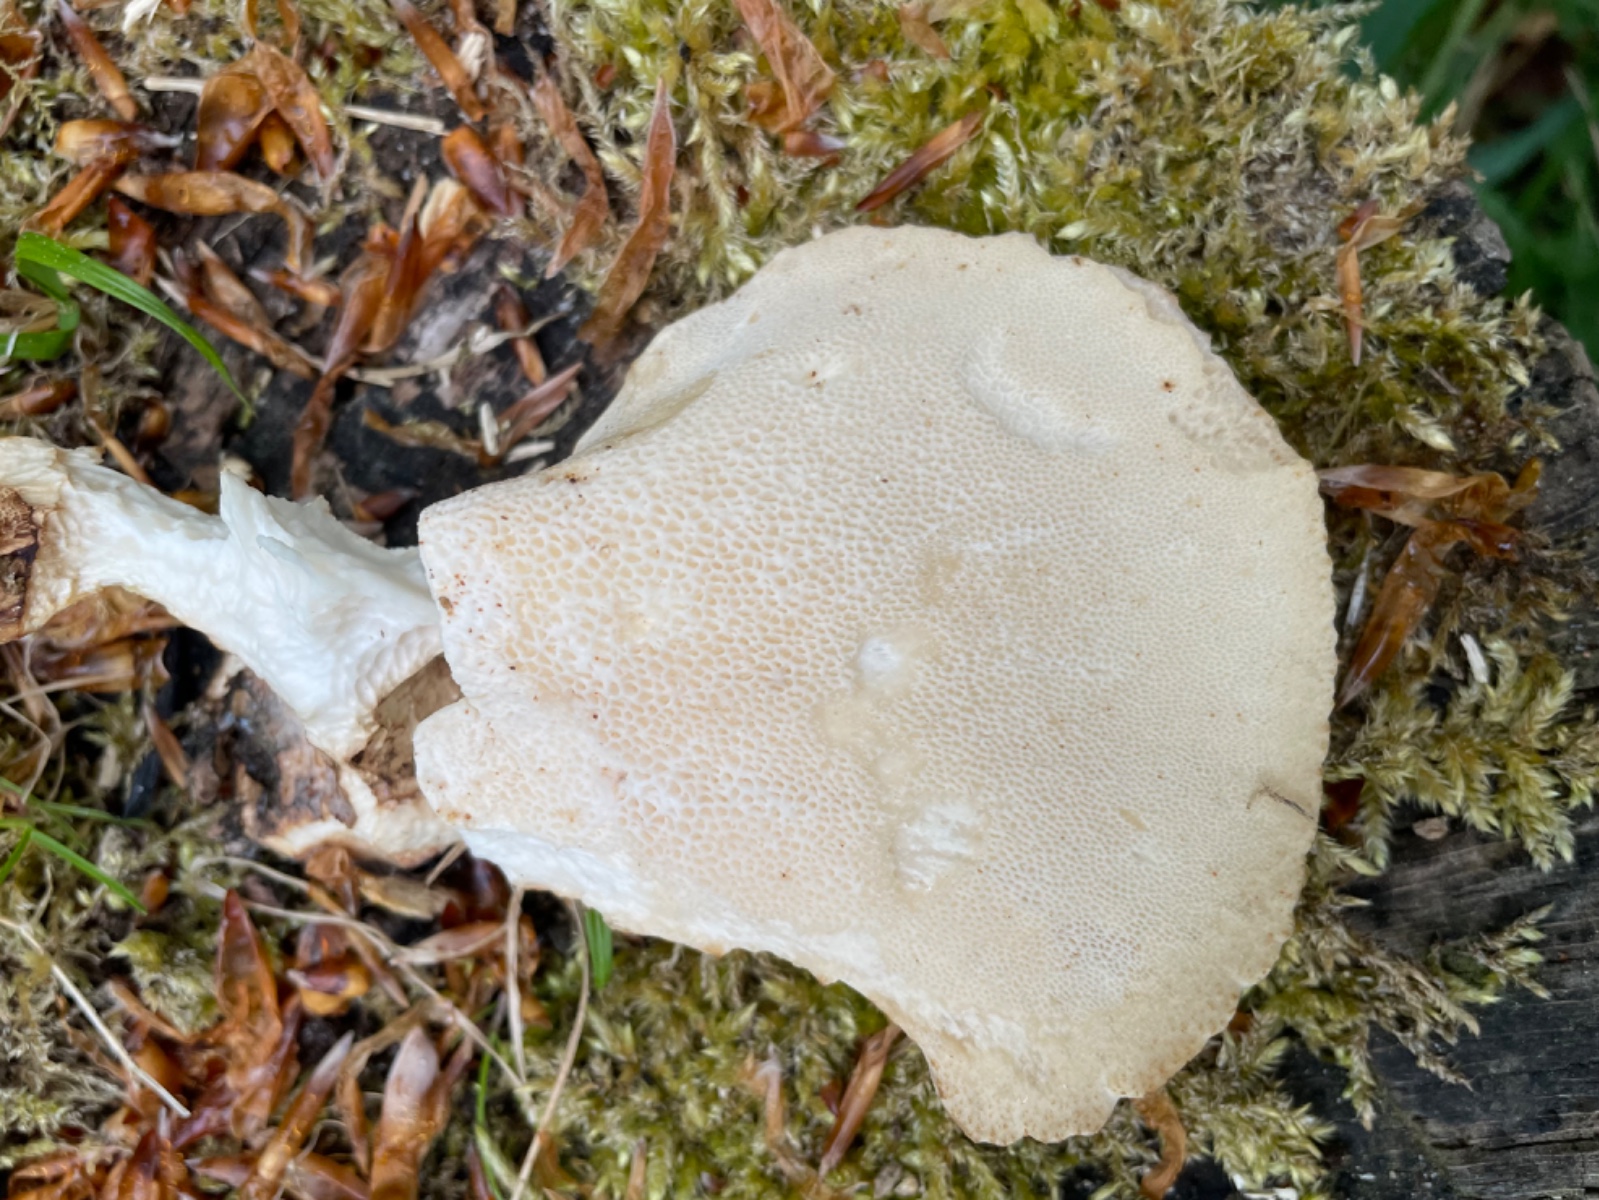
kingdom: Fungi
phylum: Basidiomycota
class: Agaricomycetes
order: Polyporales
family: Polyporaceae
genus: Cerioporus
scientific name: Cerioporus squamosus
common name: skællet stilkporesvamp
